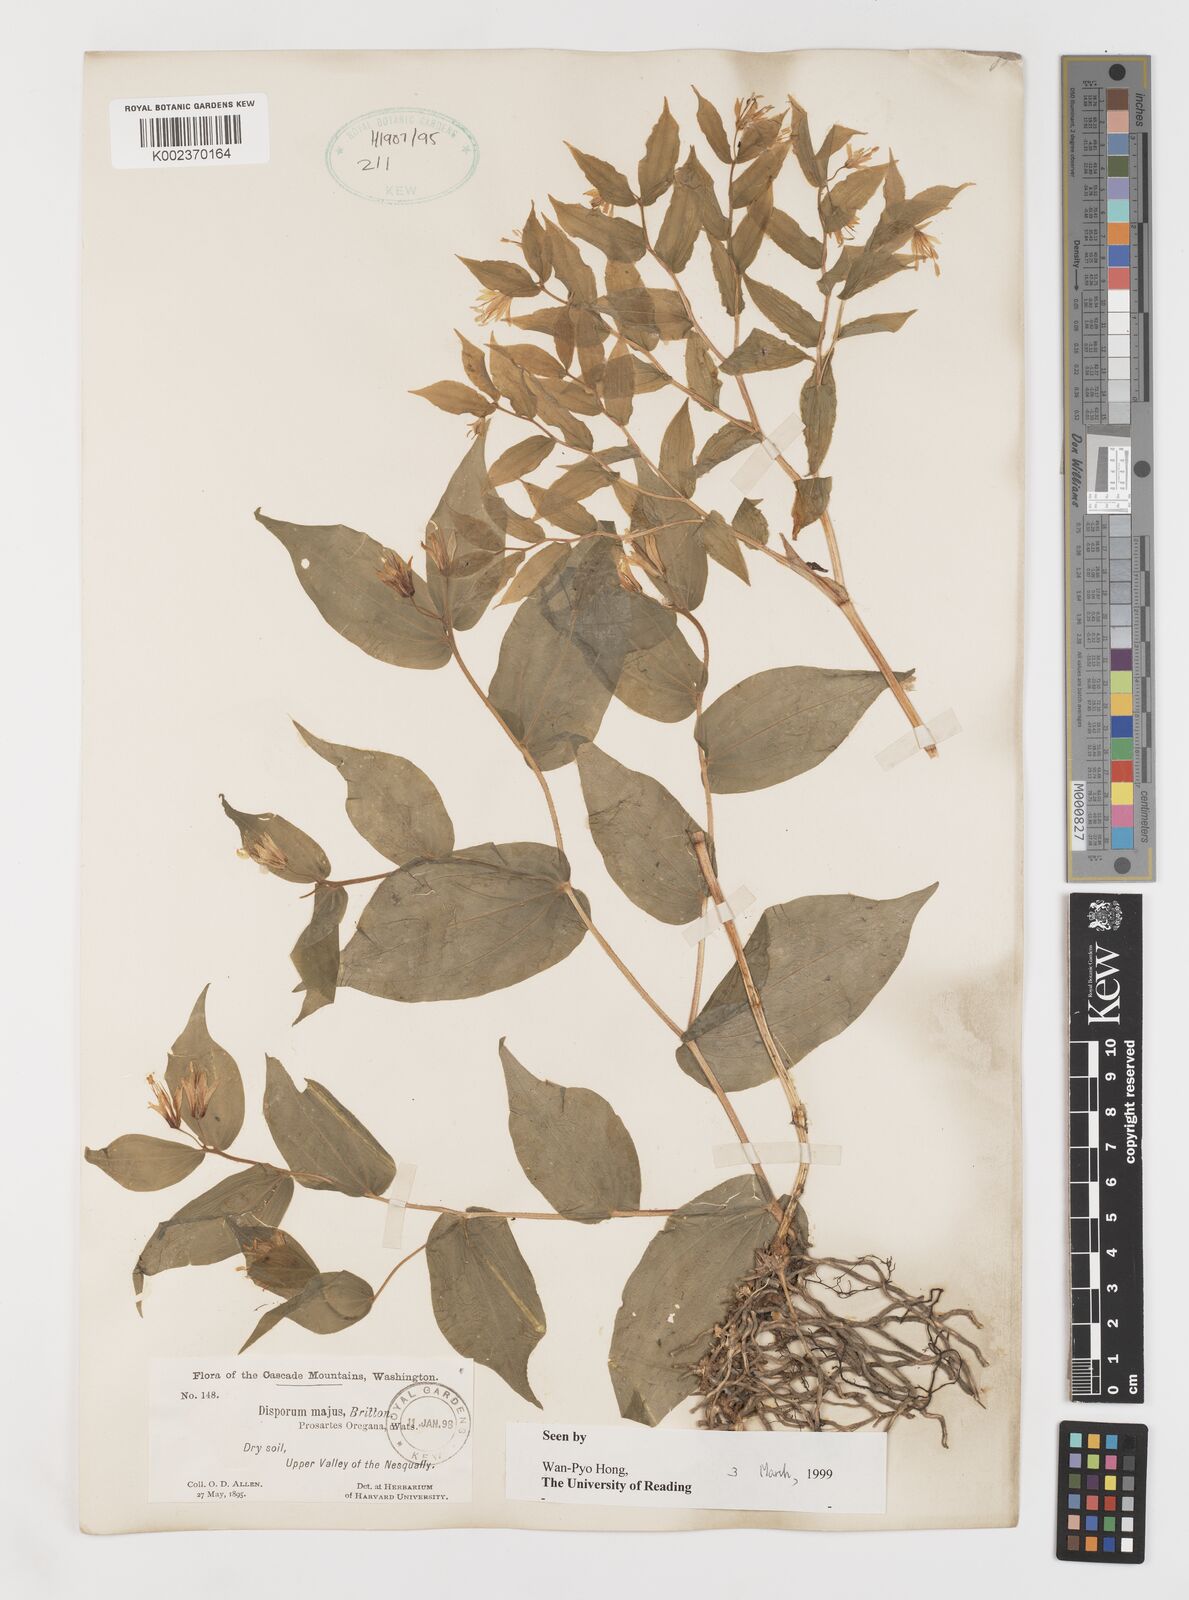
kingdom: Plantae
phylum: Tracheophyta
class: Liliopsida
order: Liliales
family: Liliaceae
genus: Prosartes
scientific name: Prosartes trachycarpa
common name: Rough-fruit fairy-bells
